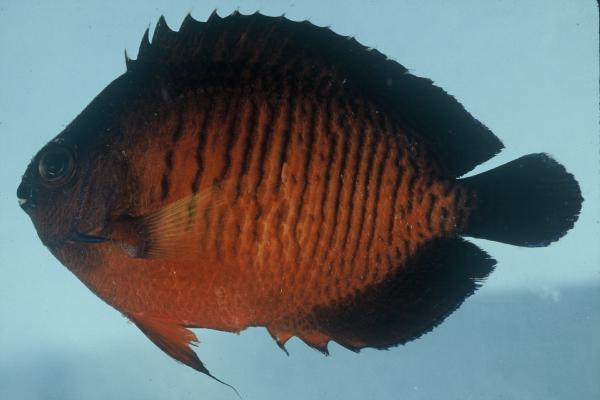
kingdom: Animalia
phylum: Chordata
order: Perciformes
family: Pomacanthidae
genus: Centropyge
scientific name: Centropyge bispinosa
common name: Coral beauty
